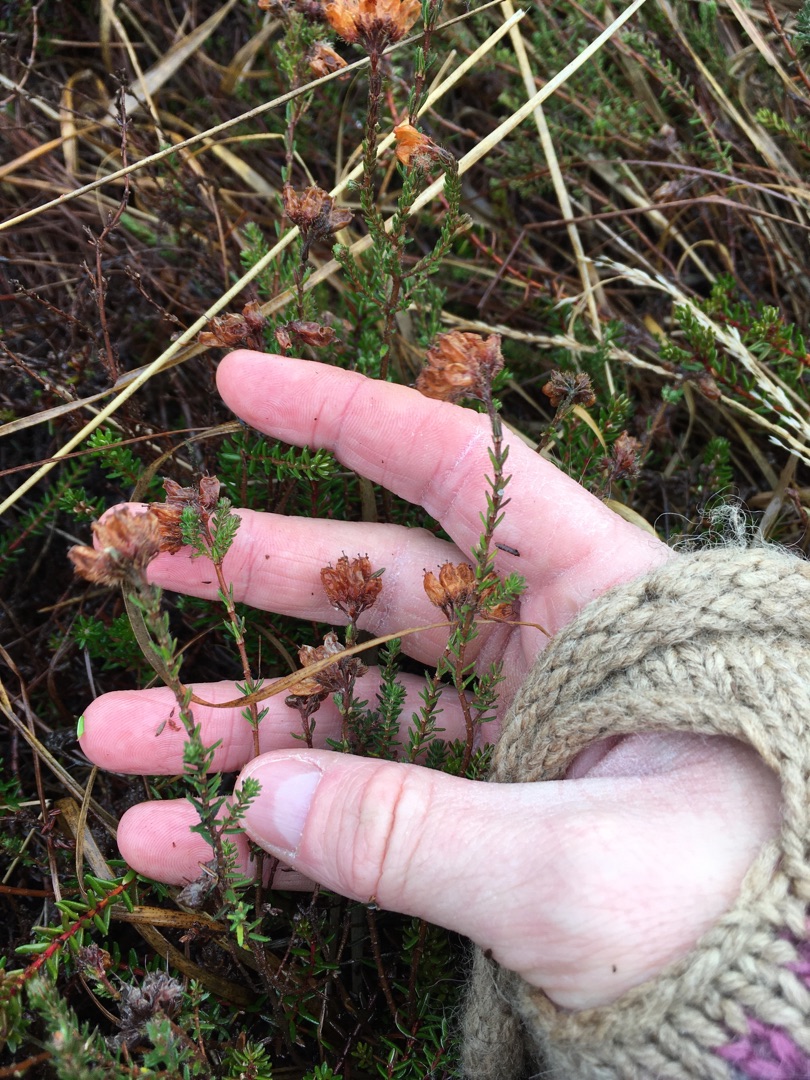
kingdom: Plantae
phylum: Tracheophyta
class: Magnoliopsida
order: Ericales
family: Ericaceae
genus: Erica
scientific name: Erica tetralix
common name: Klokkelyng
